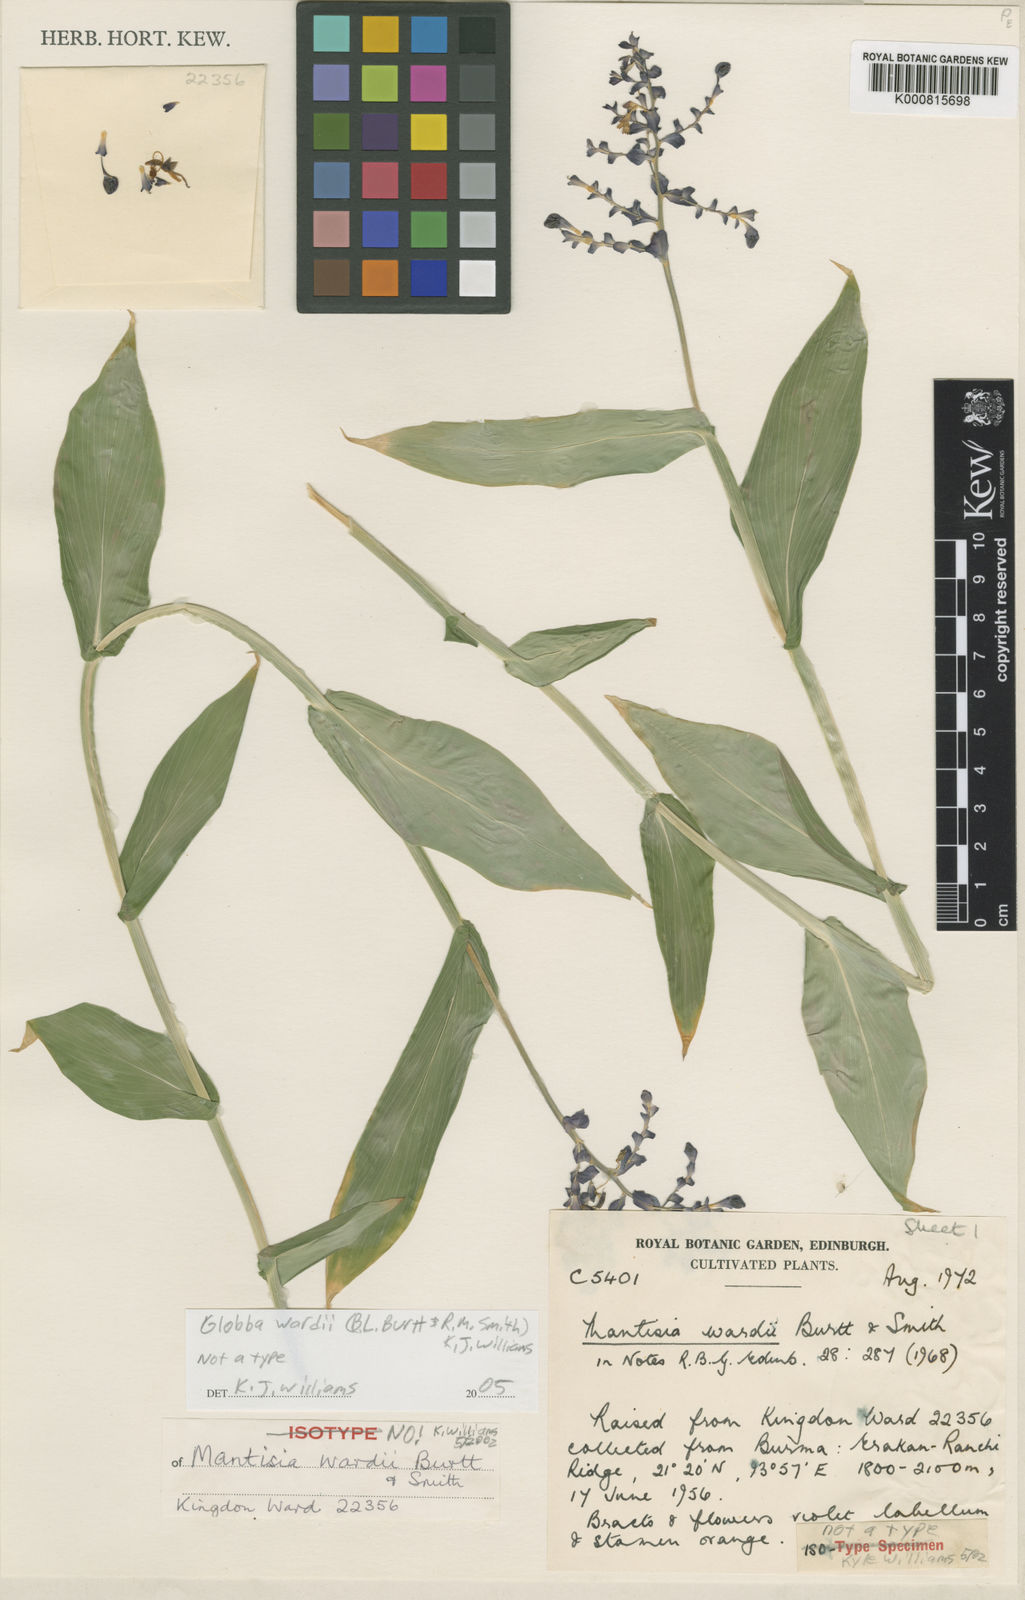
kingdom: Plantae
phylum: Tracheophyta
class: Liliopsida
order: Zingiberales
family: Zingiberaceae
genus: Globba
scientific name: Globba wardii
